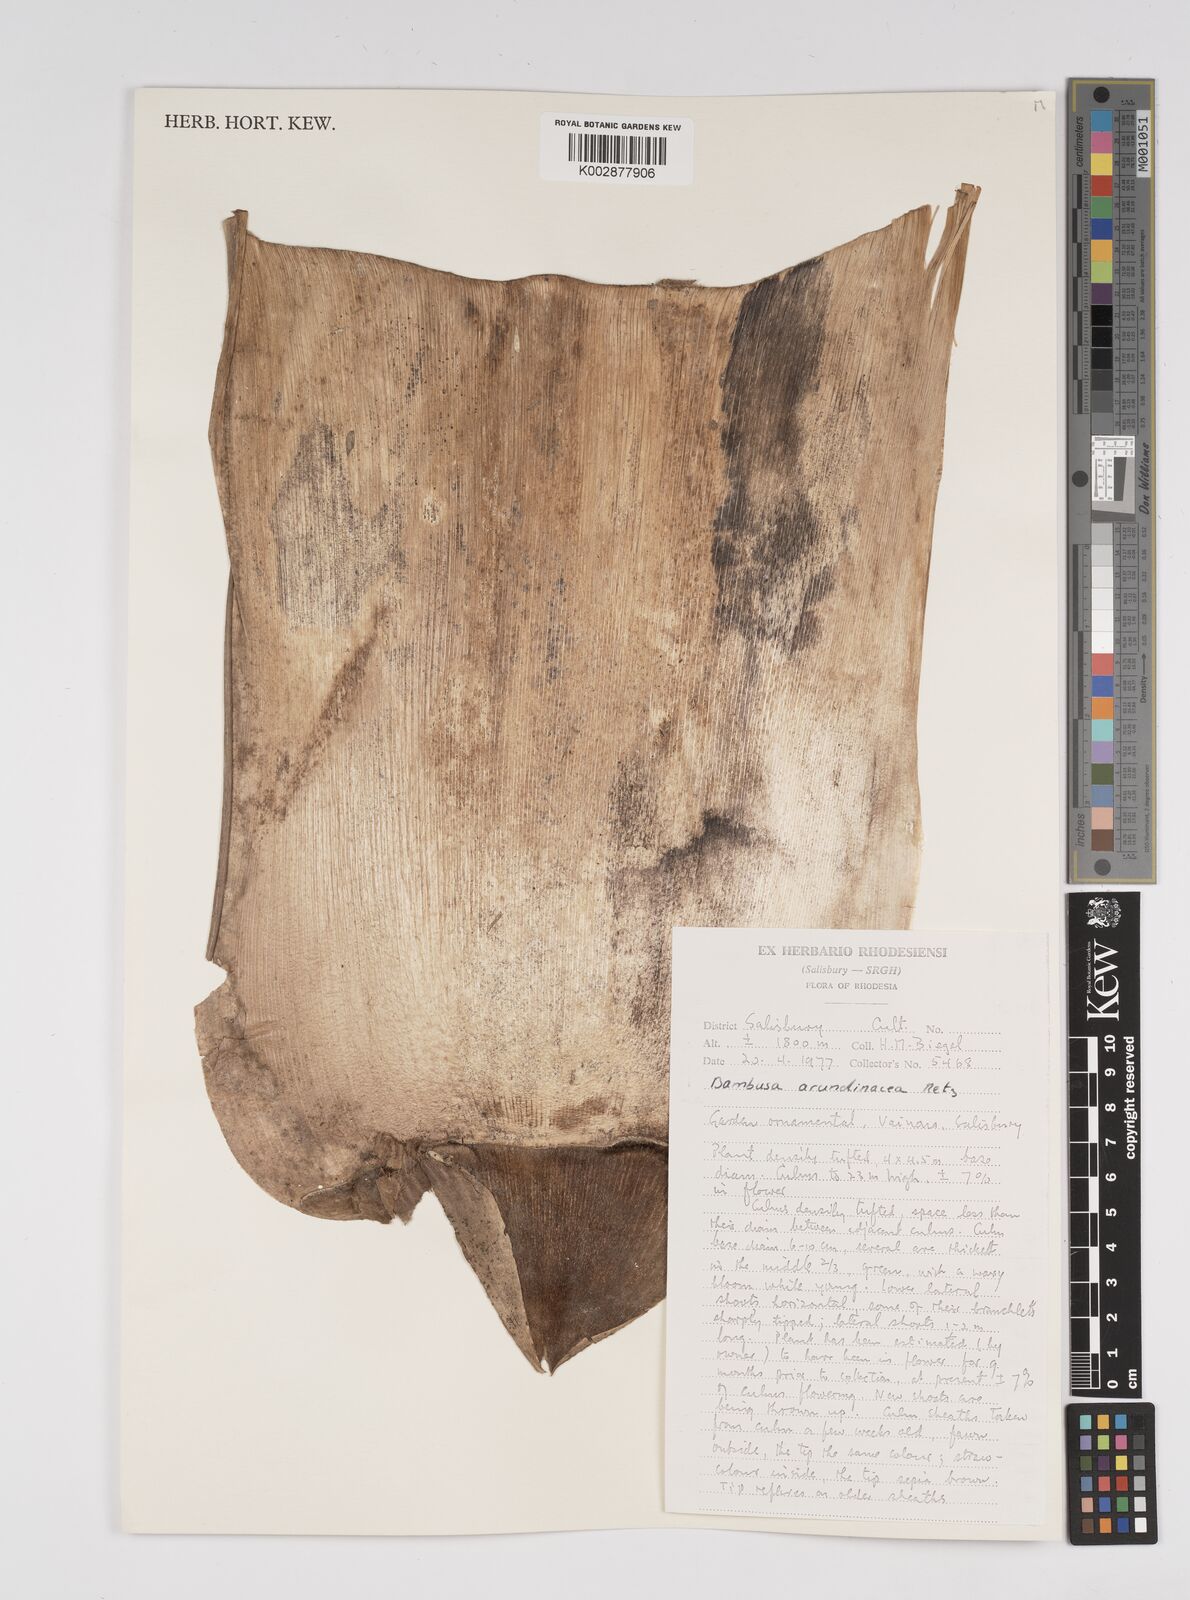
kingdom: Plantae
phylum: Tracheophyta
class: Liliopsida
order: Poales
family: Poaceae
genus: Bambusa
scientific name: Bambusa bambos
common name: Indian thorny bamboo
